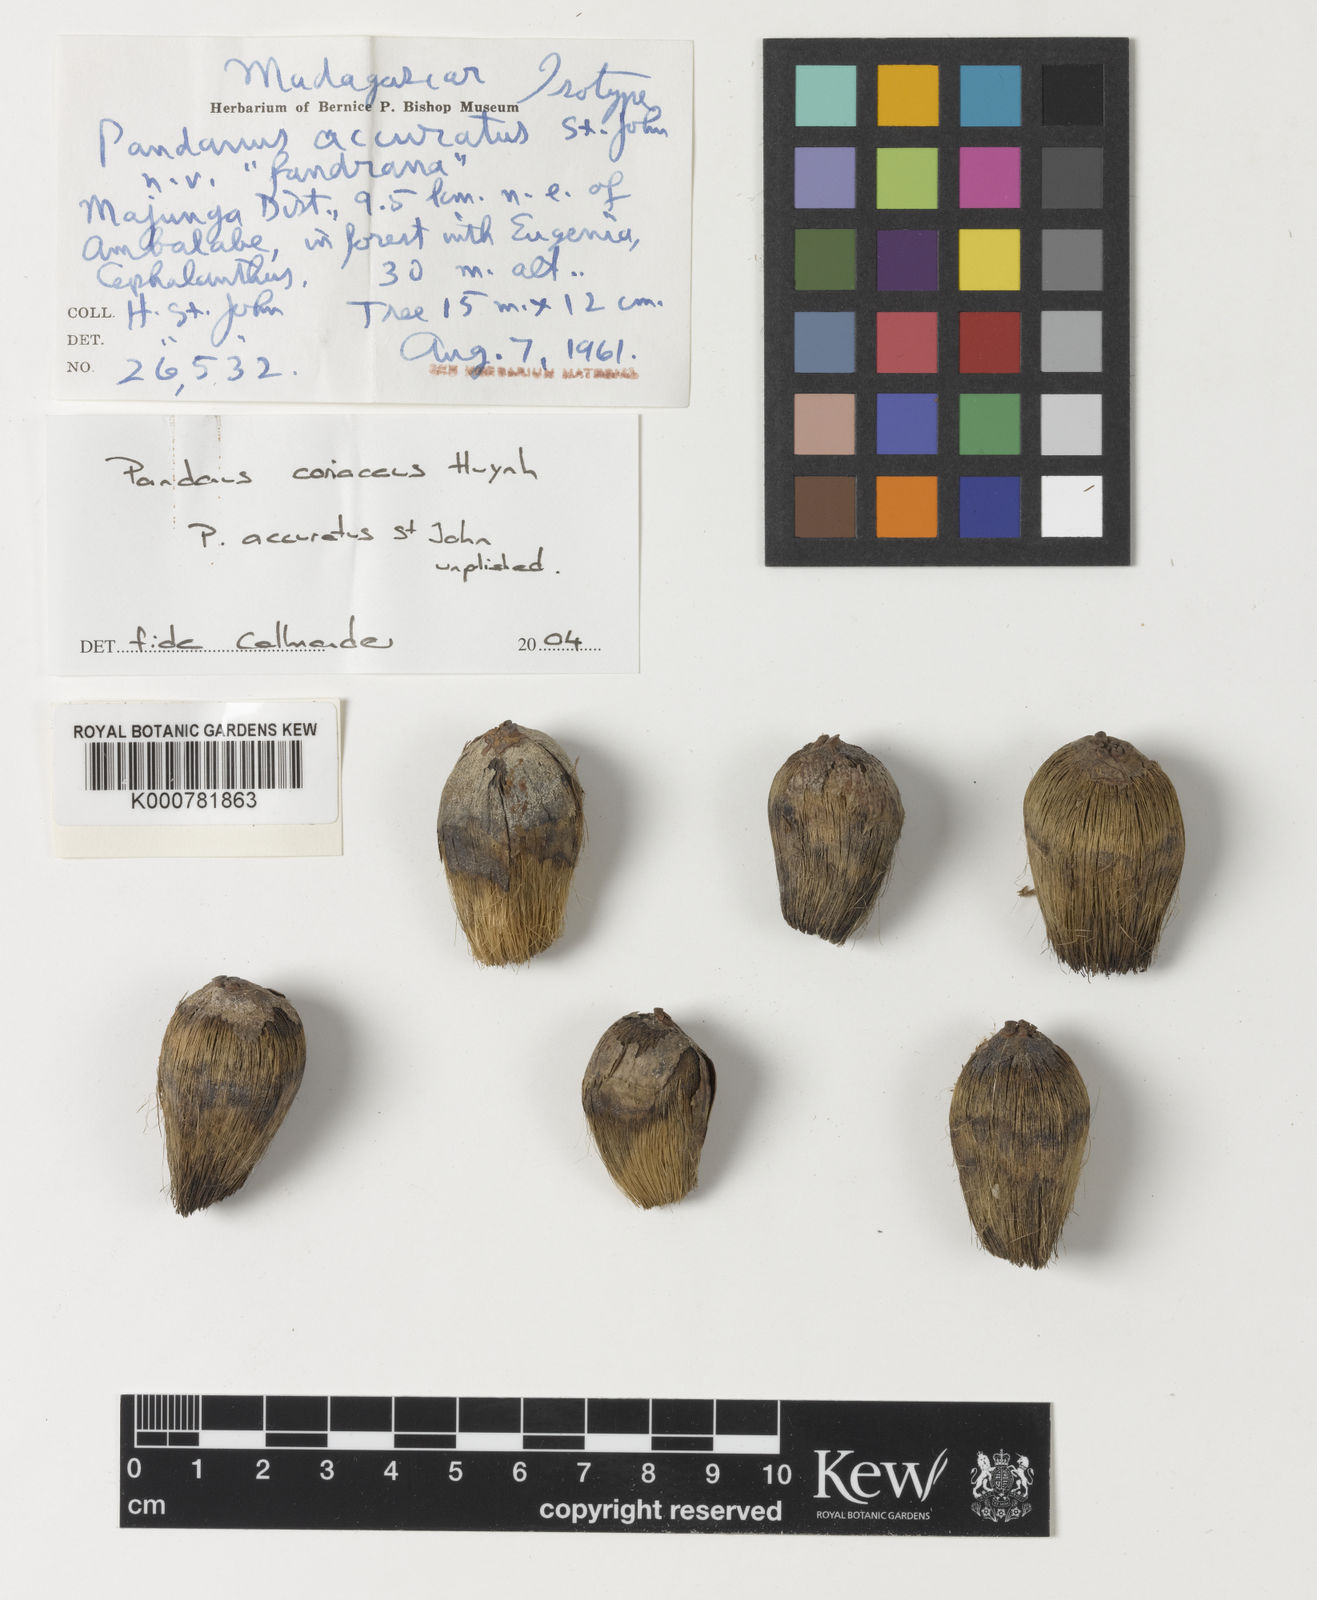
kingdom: Plantae
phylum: Tracheophyta
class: Liliopsida
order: Pandanales
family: Pandanaceae
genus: Pandanus
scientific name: Pandanus coriaceus
